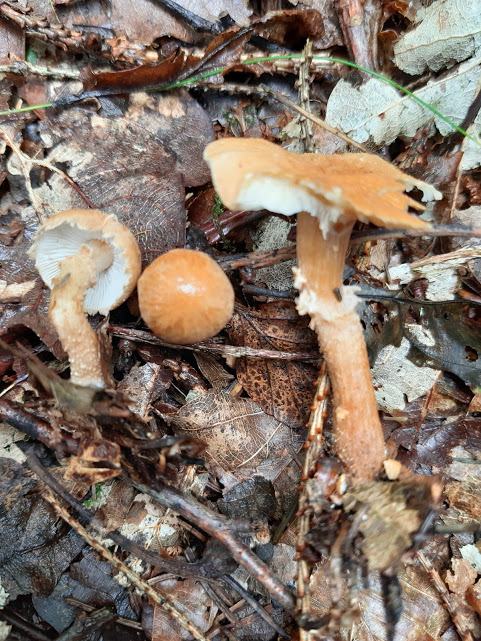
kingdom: Fungi
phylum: Basidiomycota
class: Agaricomycetes
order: Agaricales
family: Tricholomataceae
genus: Cystoderma
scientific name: Cystoderma amianthinum
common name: okkergul grynhat
